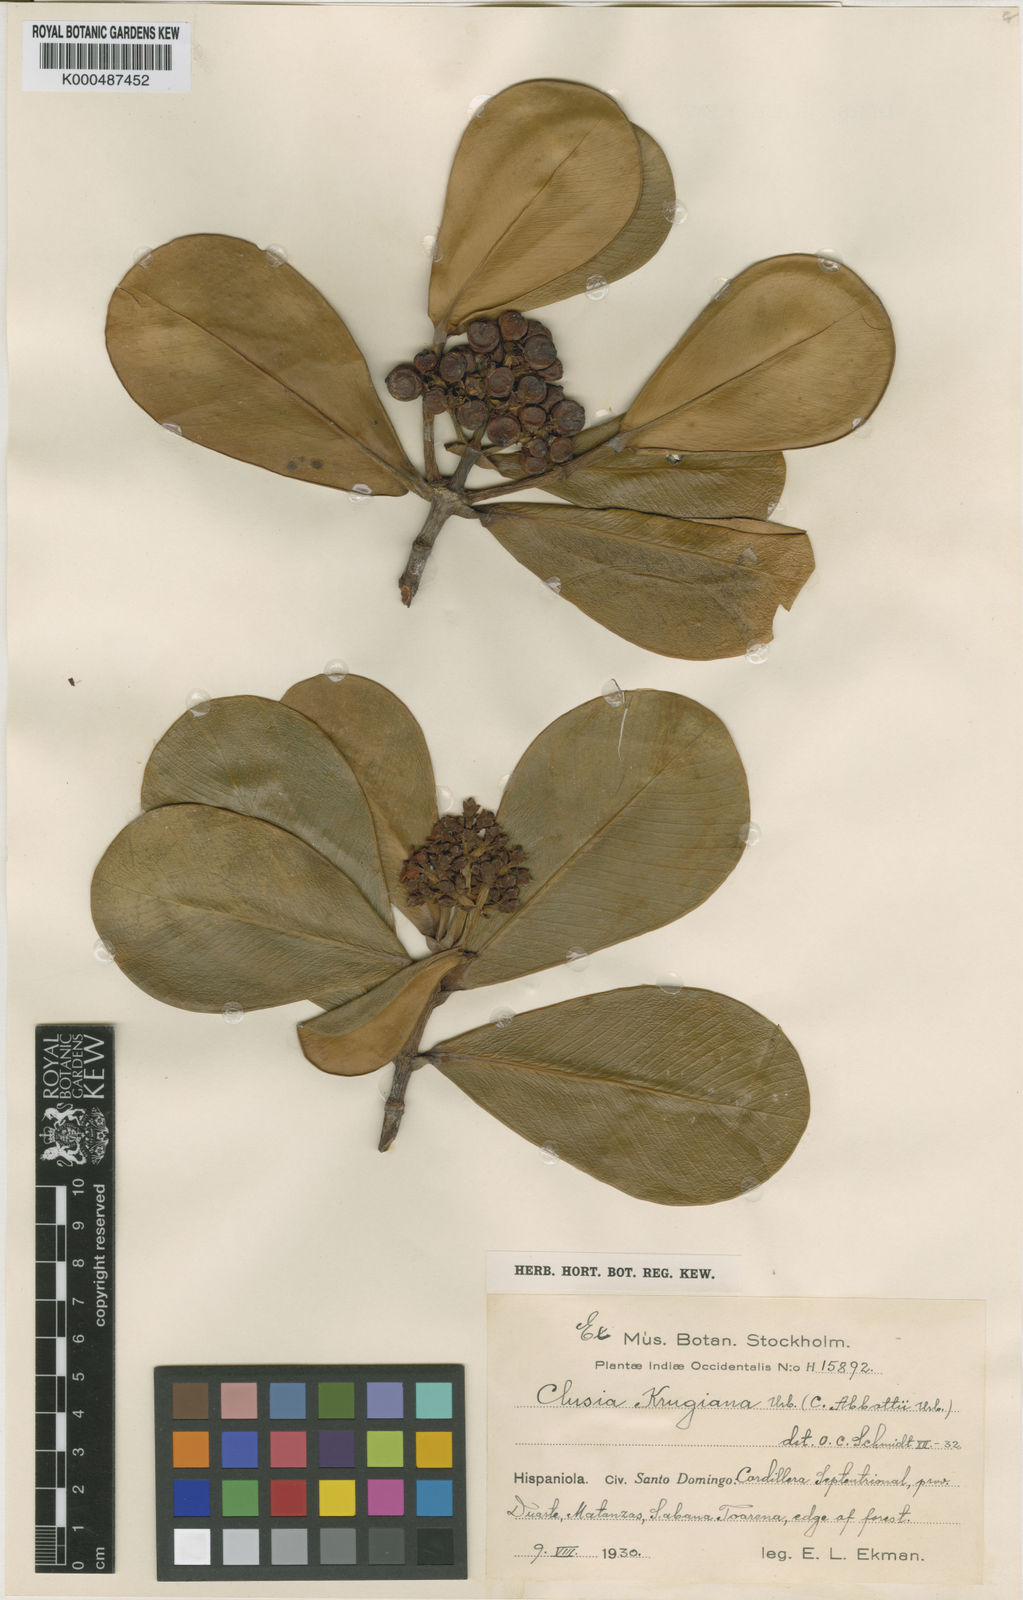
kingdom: Plantae
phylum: Tracheophyta
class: Magnoliopsida
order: Malpighiales
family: Clusiaceae
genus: Clusia
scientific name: Clusia clusioides
